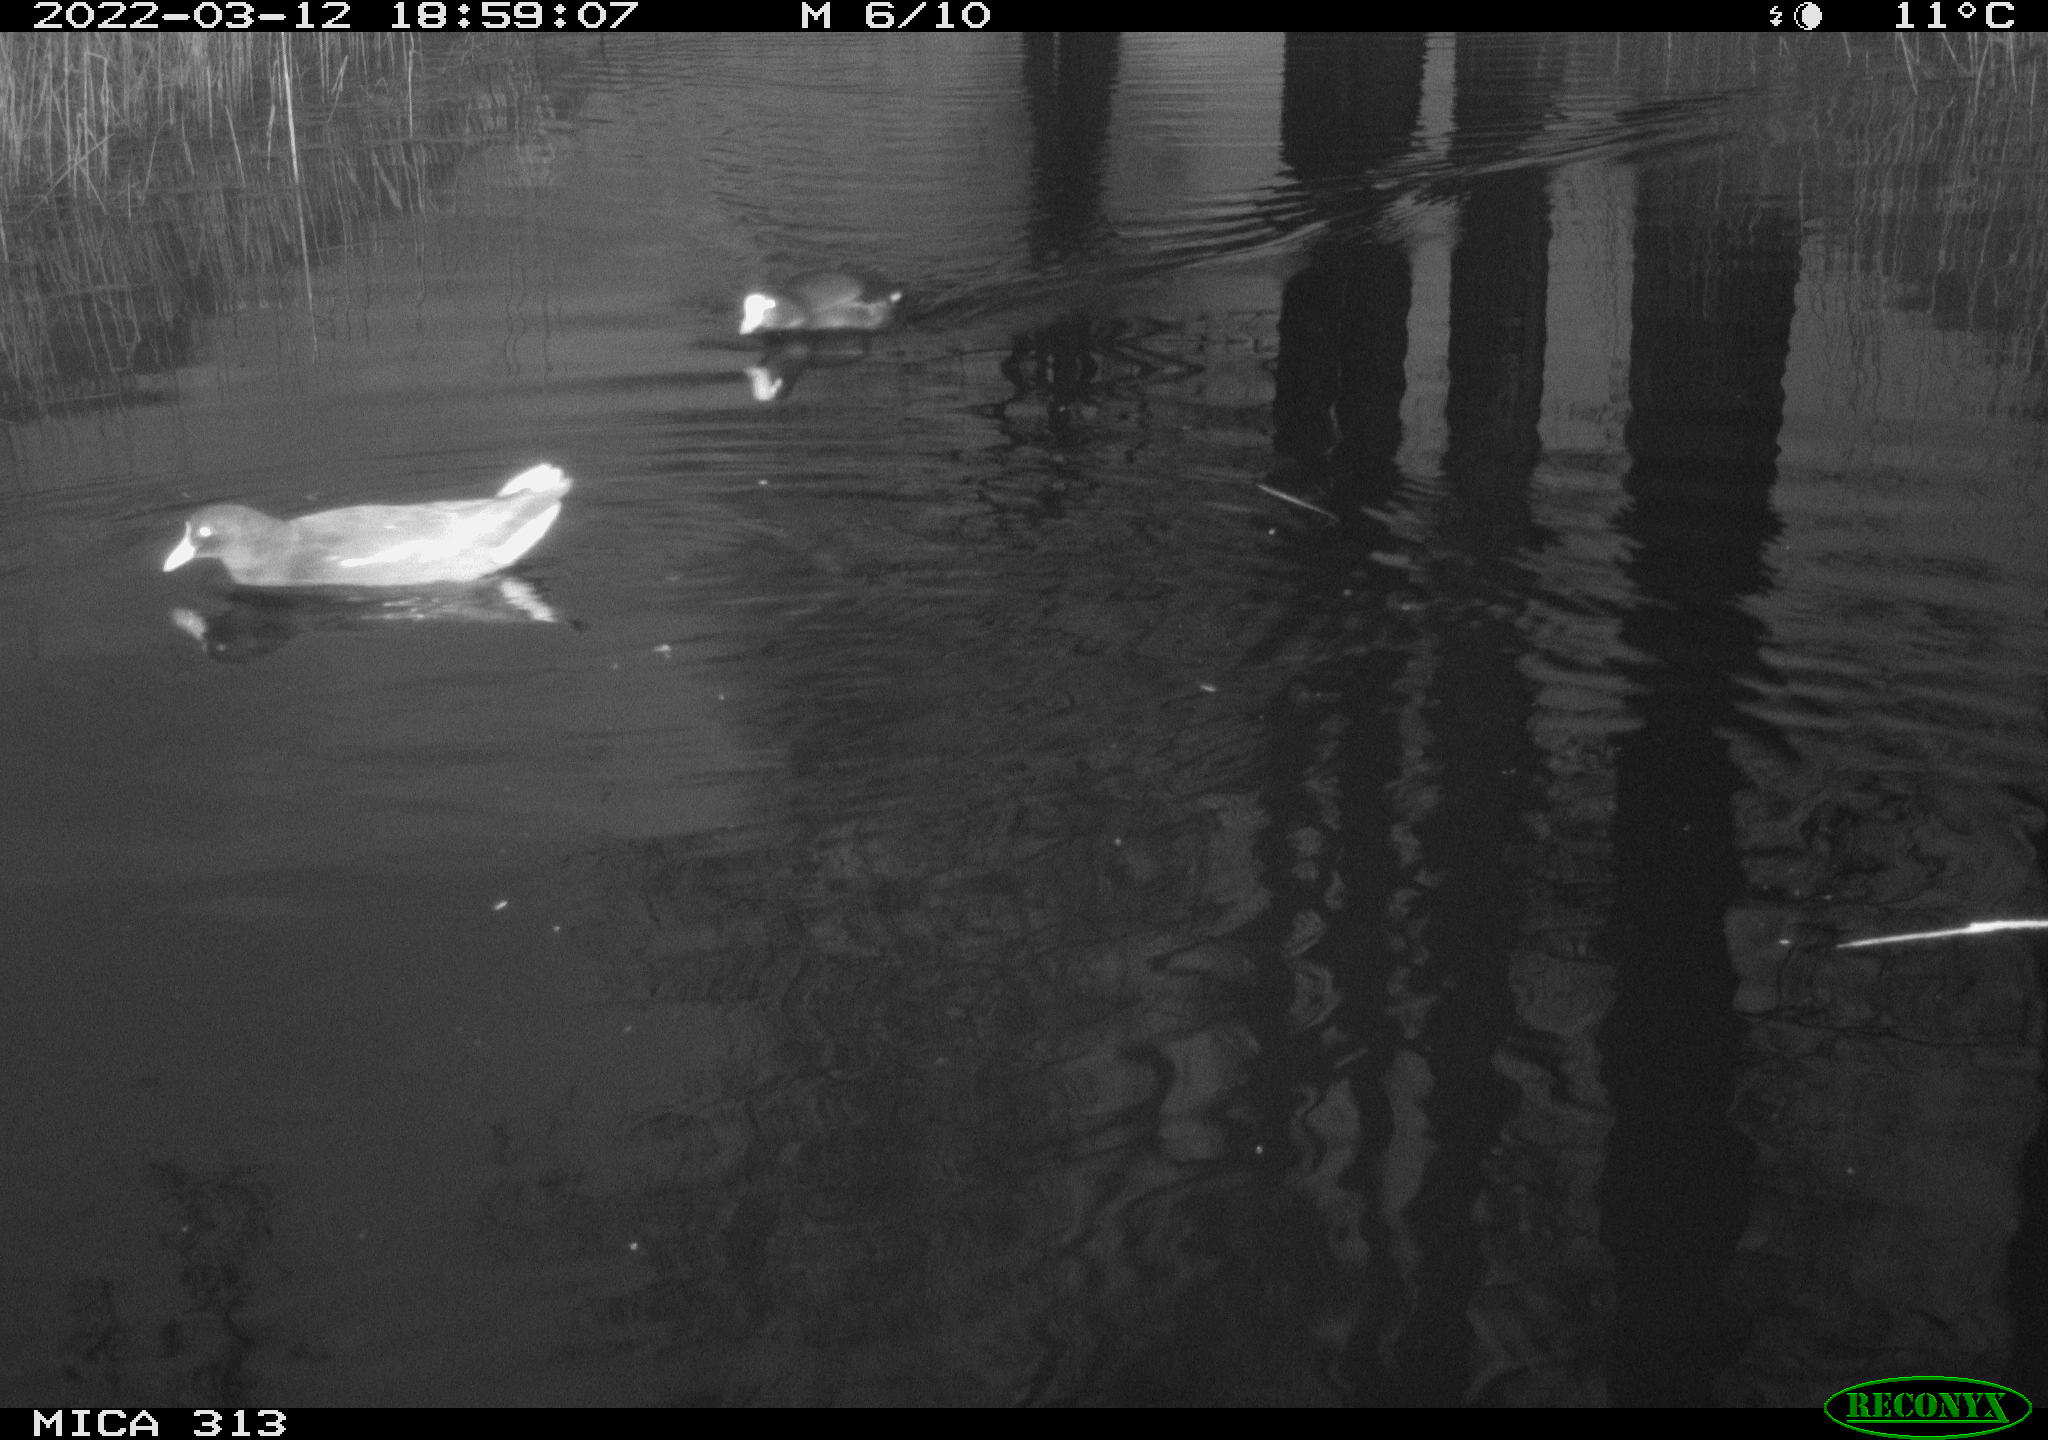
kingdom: Animalia
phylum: Chordata
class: Aves
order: Gruiformes
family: Rallidae
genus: Gallinula
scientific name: Gallinula chloropus
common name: Common moorhen
